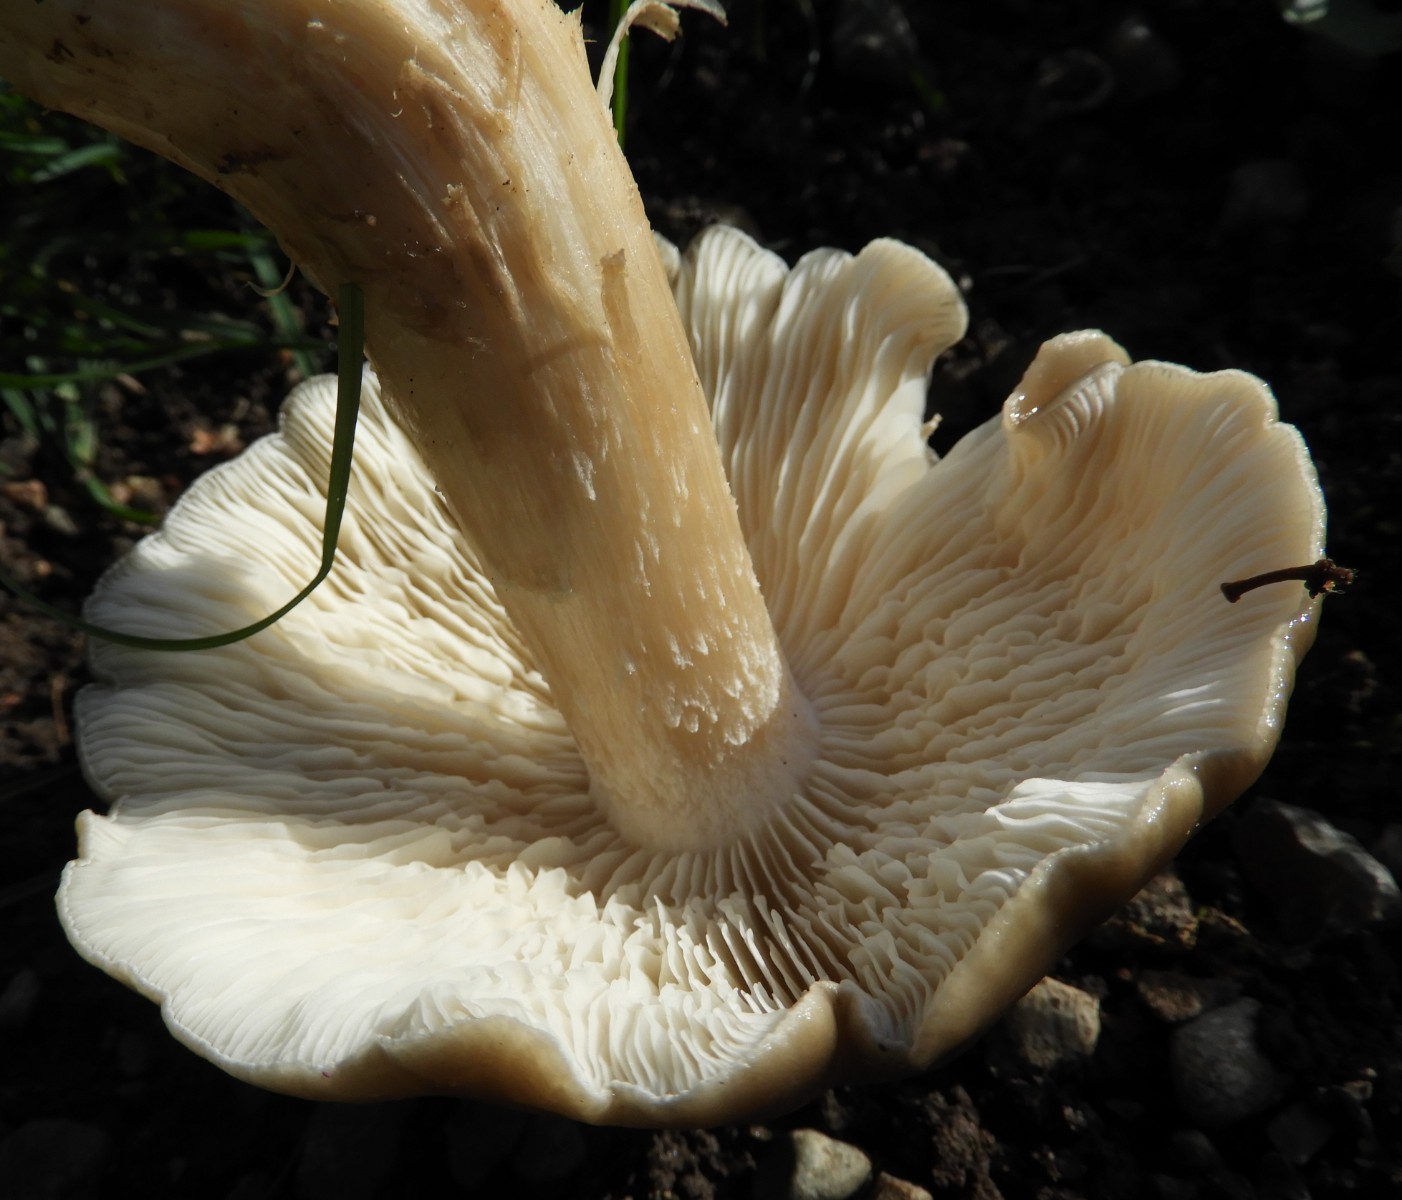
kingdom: Fungi
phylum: Basidiomycota
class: Agaricomycetes
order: Agaricales
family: Lyophyllaceae
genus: Lyophyllum
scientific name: Lyophyllum decastes
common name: røggrå gråblad
